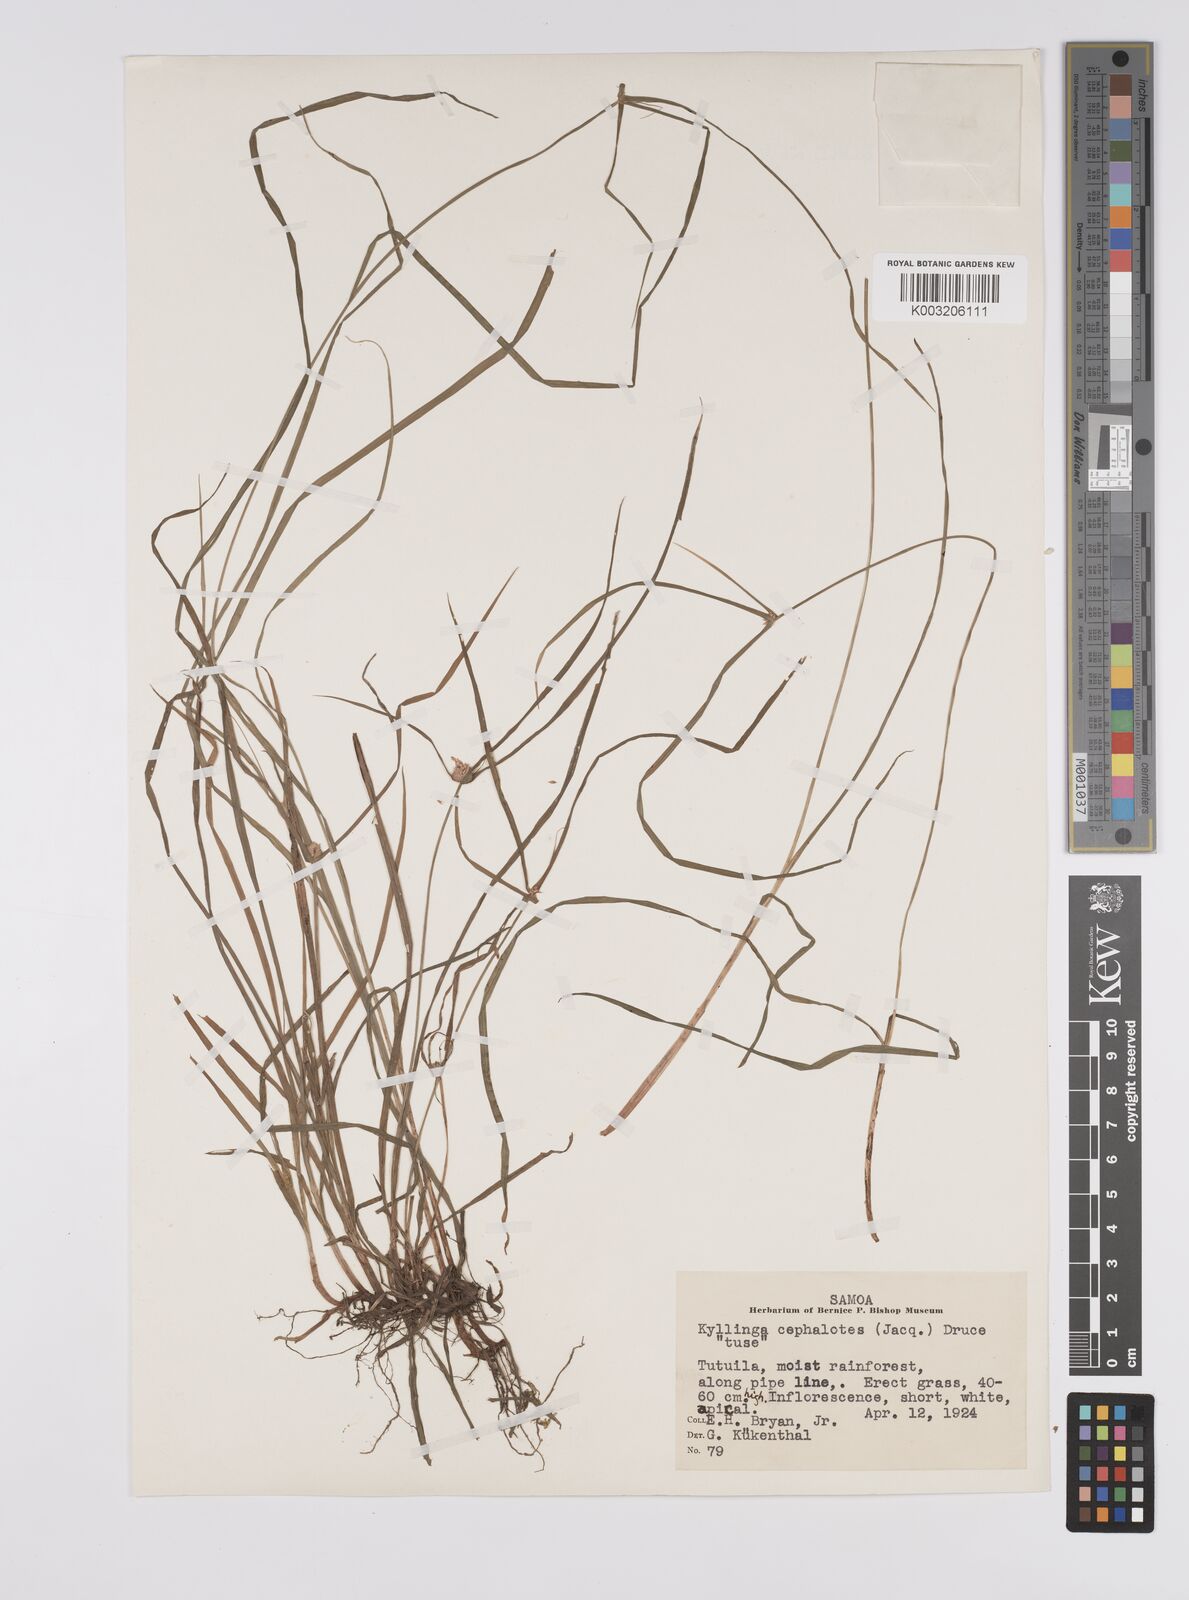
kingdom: Plantae
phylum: Tracheophyta
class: Liliopsida
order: Poales
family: Cyperaceae
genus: Cyperus
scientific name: Cyperus nemoralis
